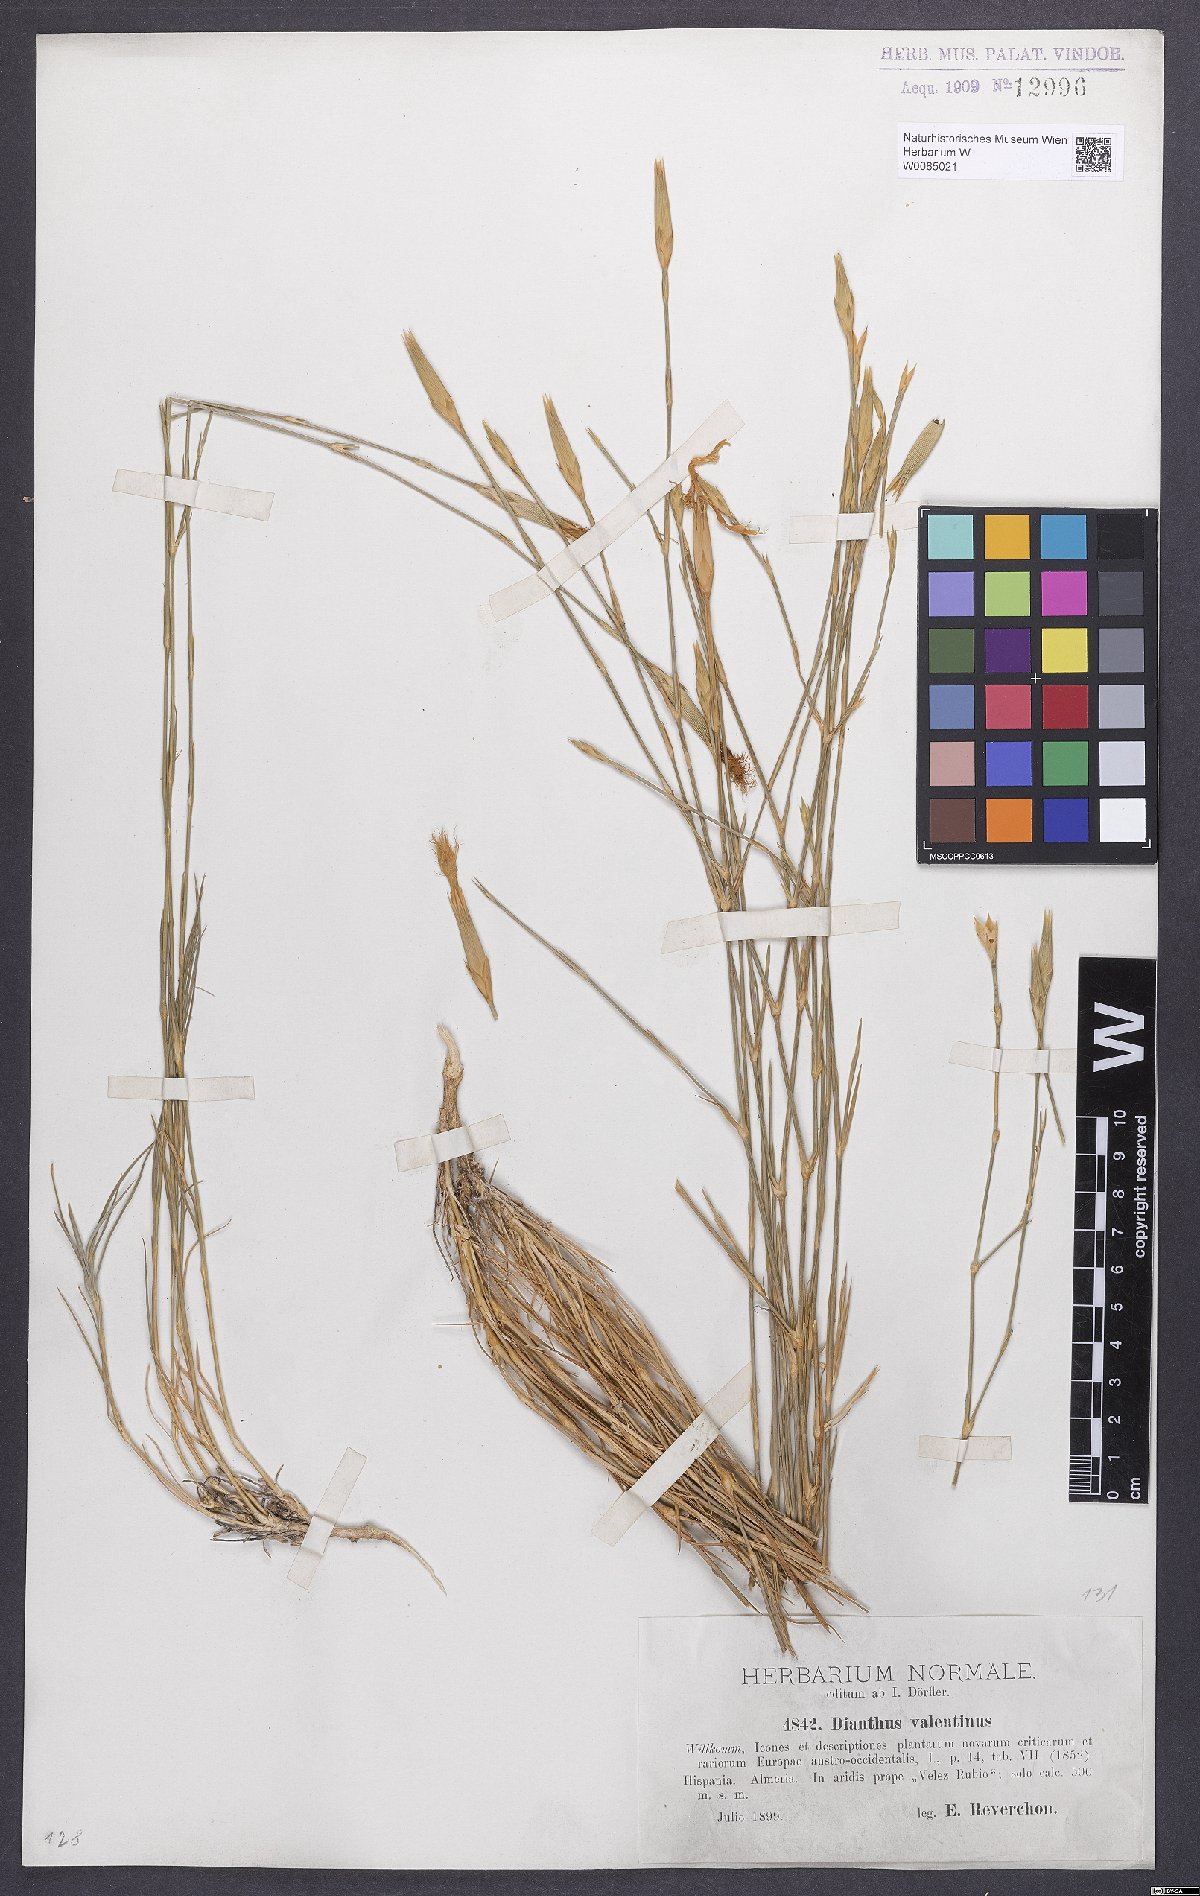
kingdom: Plantae
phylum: Tracheophyta
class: Magnoliopsida
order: Caryophyllales
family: Caryophyllaceae
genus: Dianthus
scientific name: Dianthus broteri
